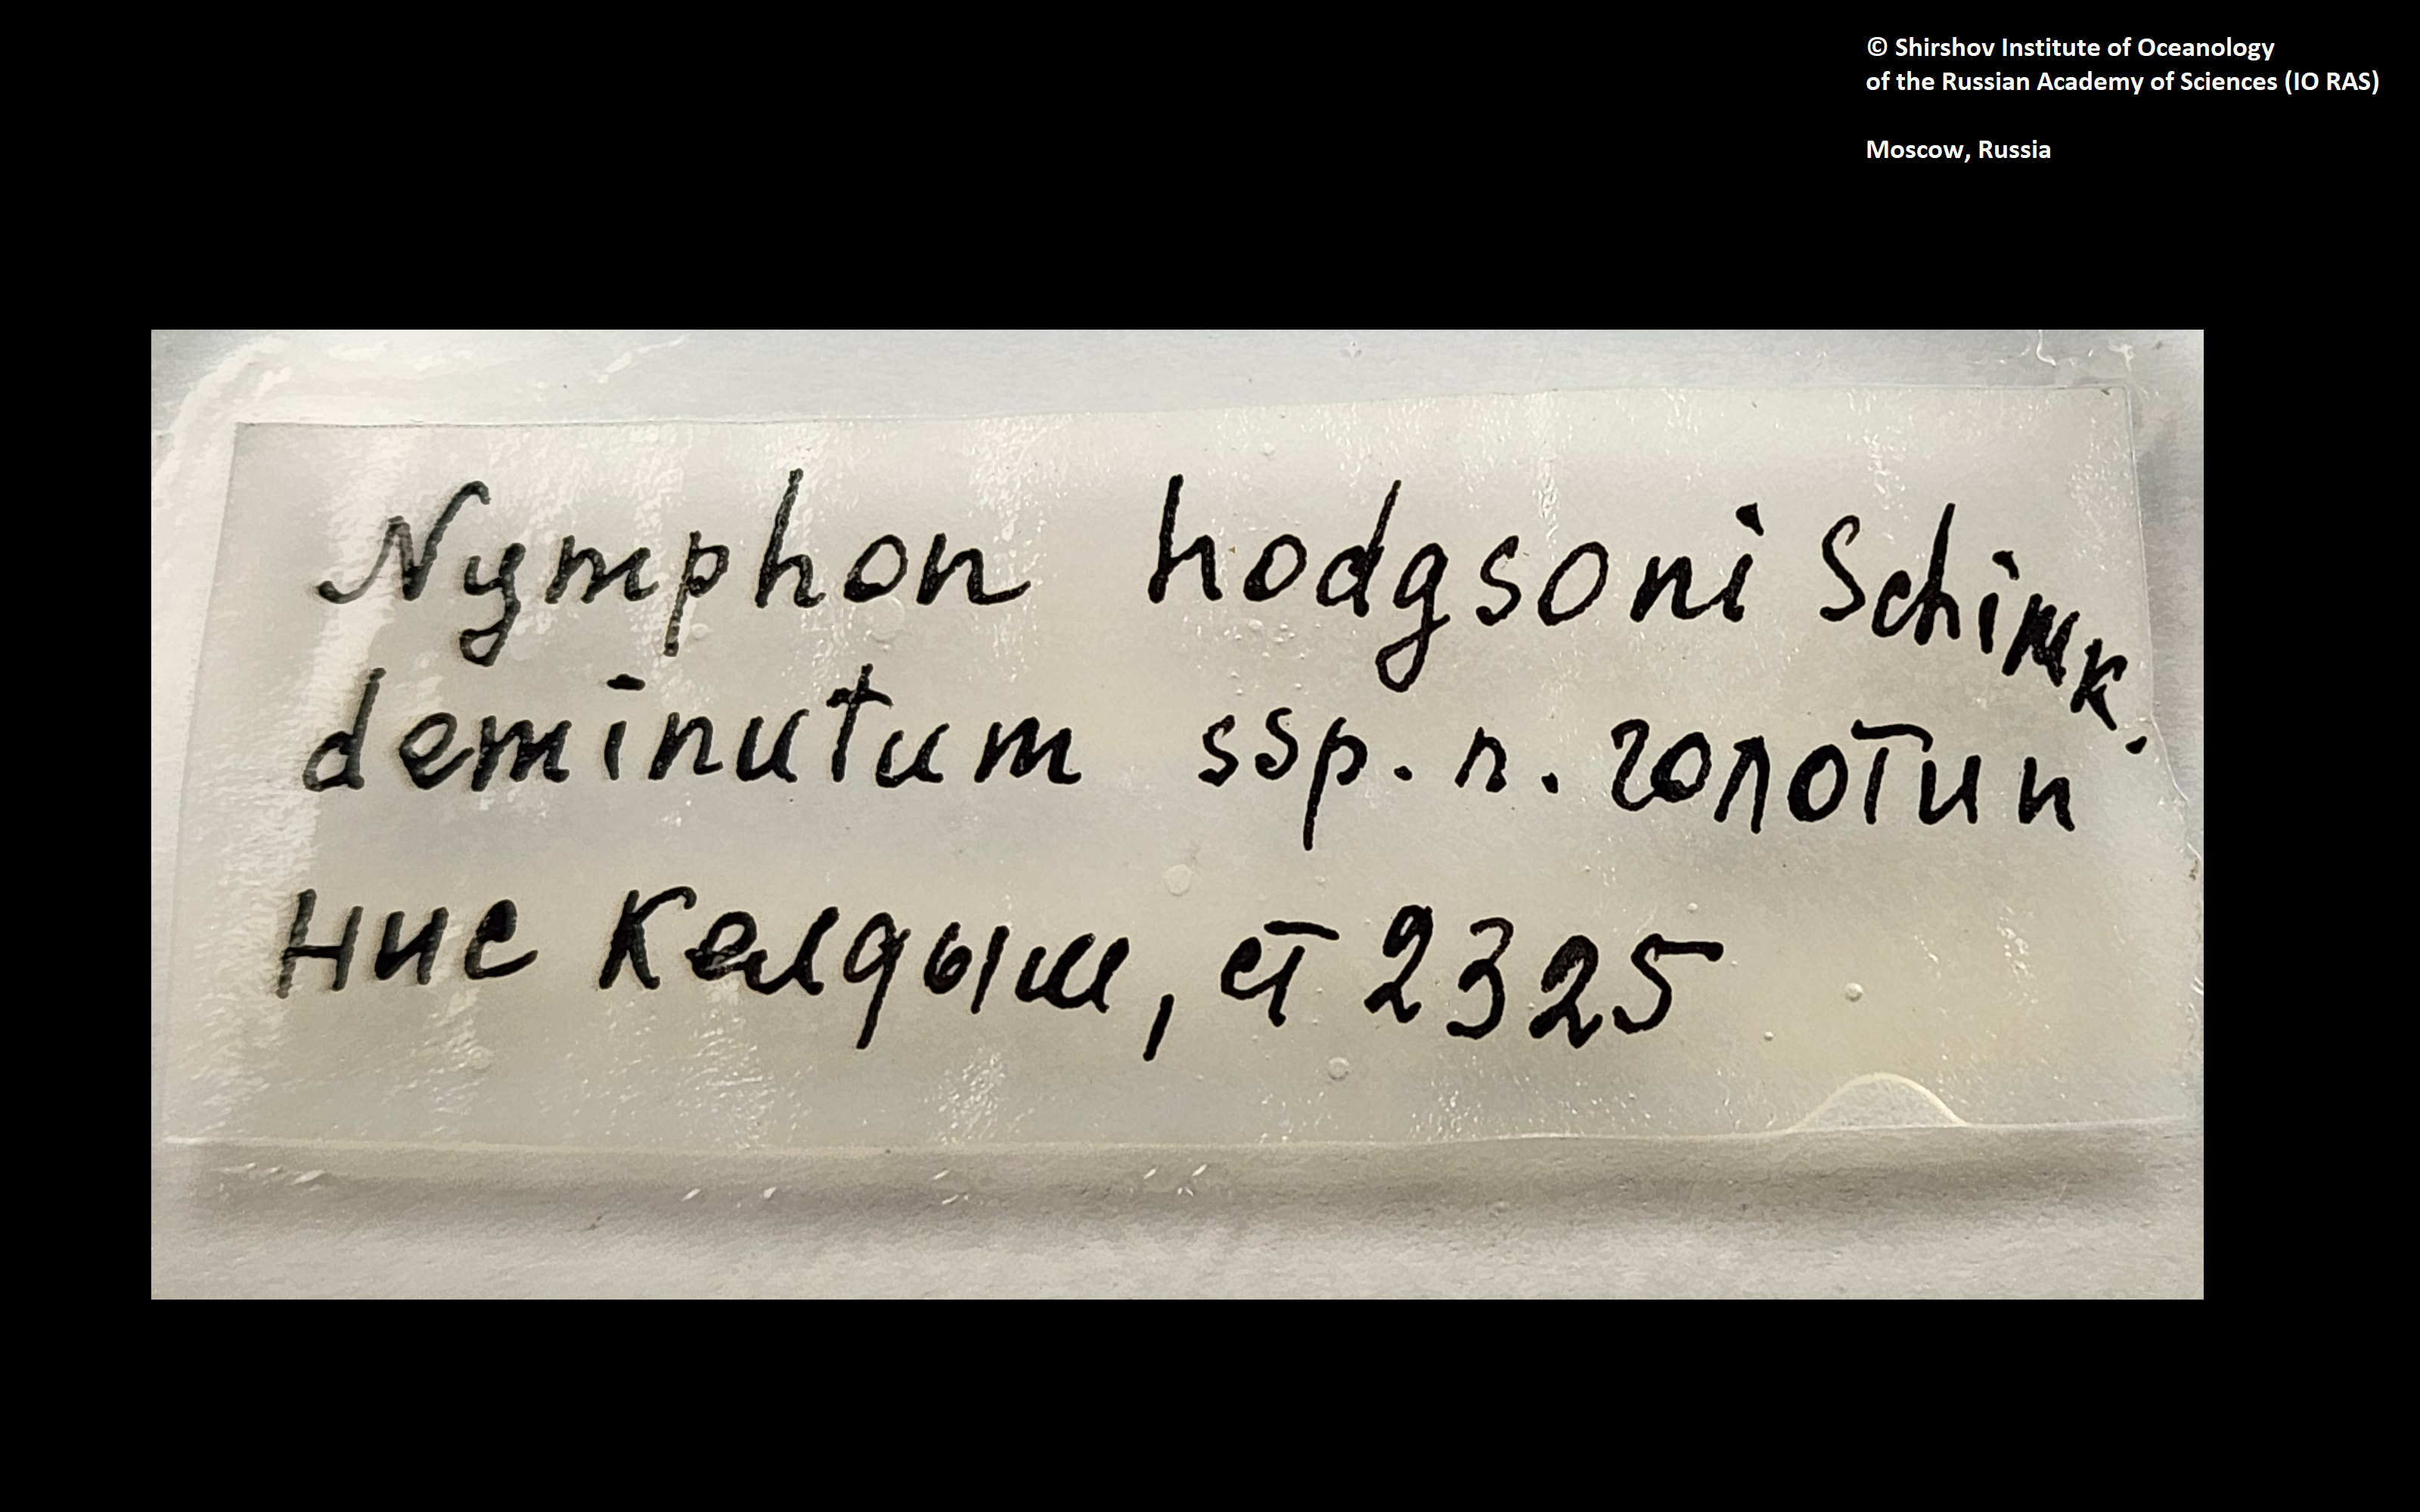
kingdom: Animalia
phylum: Arthropoda
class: Pycnogonida
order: Pantopoda
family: Nymphonidae
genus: Nymphon
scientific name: Nymphon hodgsoni
